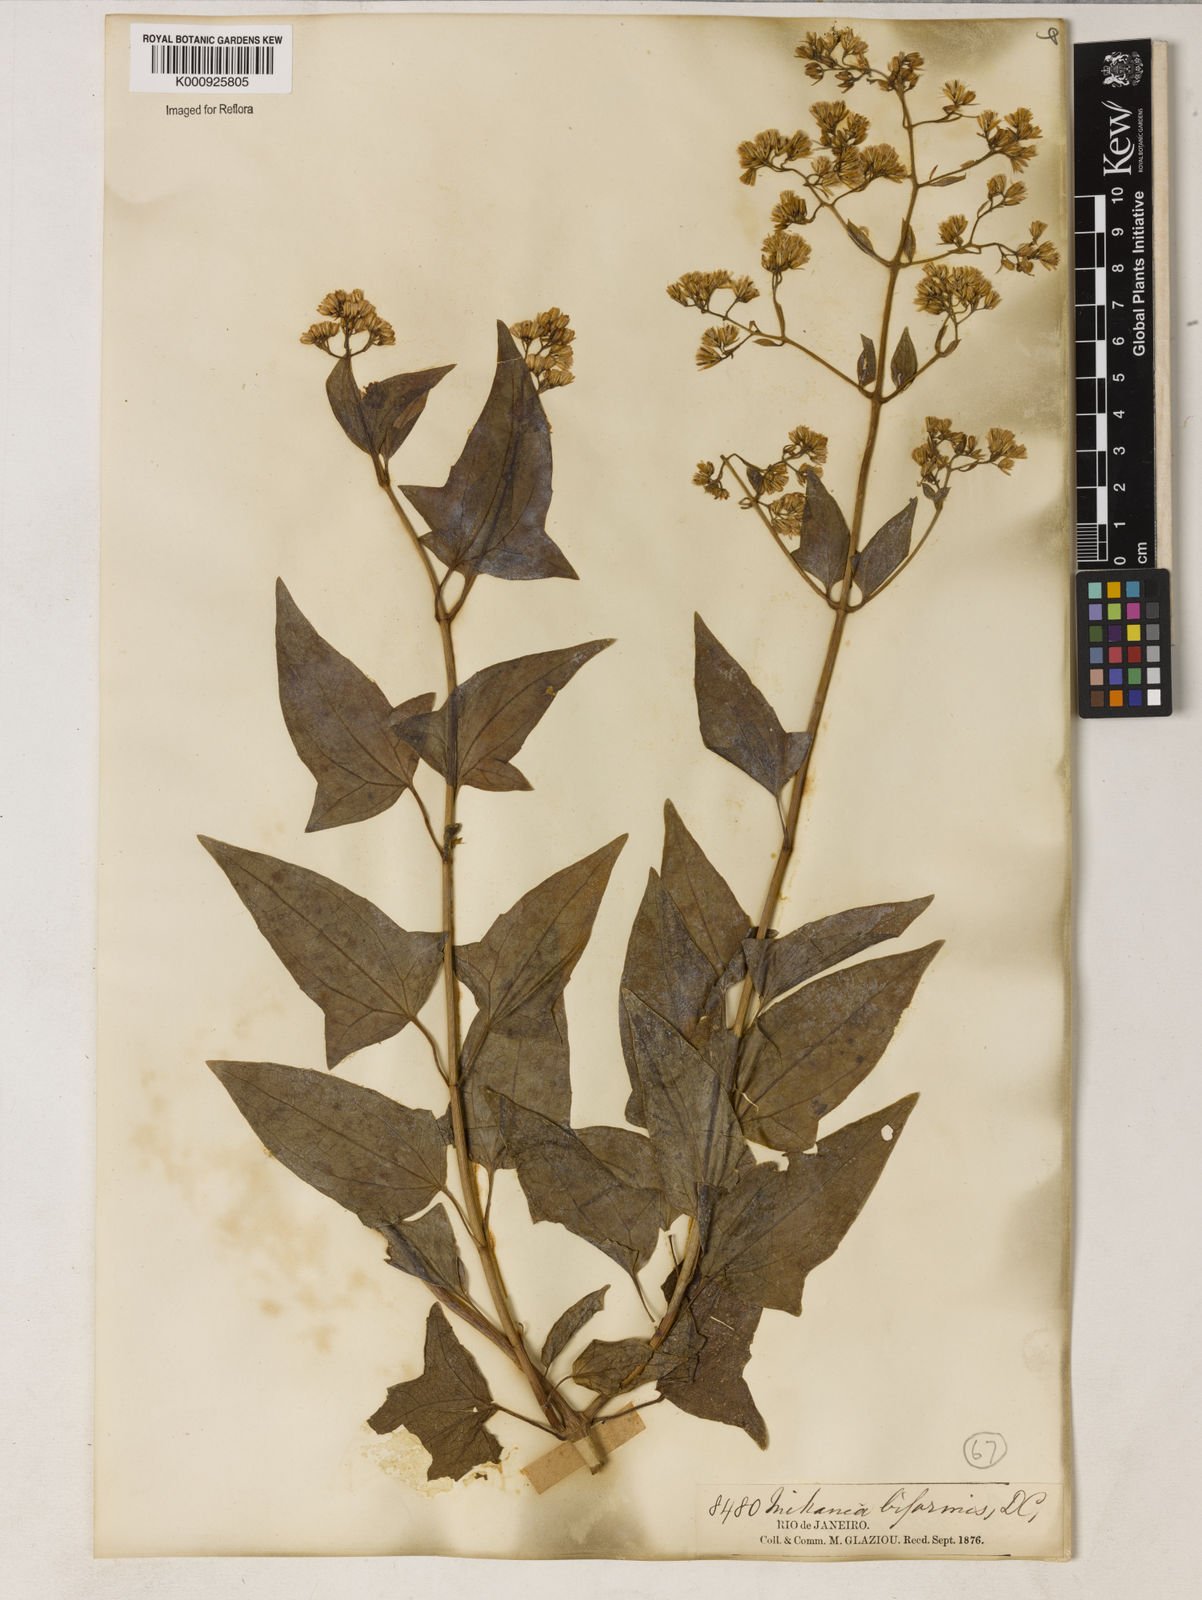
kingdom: Plantae
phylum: Tracheophyta
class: Magnoliopsida
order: Asterales
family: Asteraceae
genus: Mikania
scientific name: Mikania biformis
